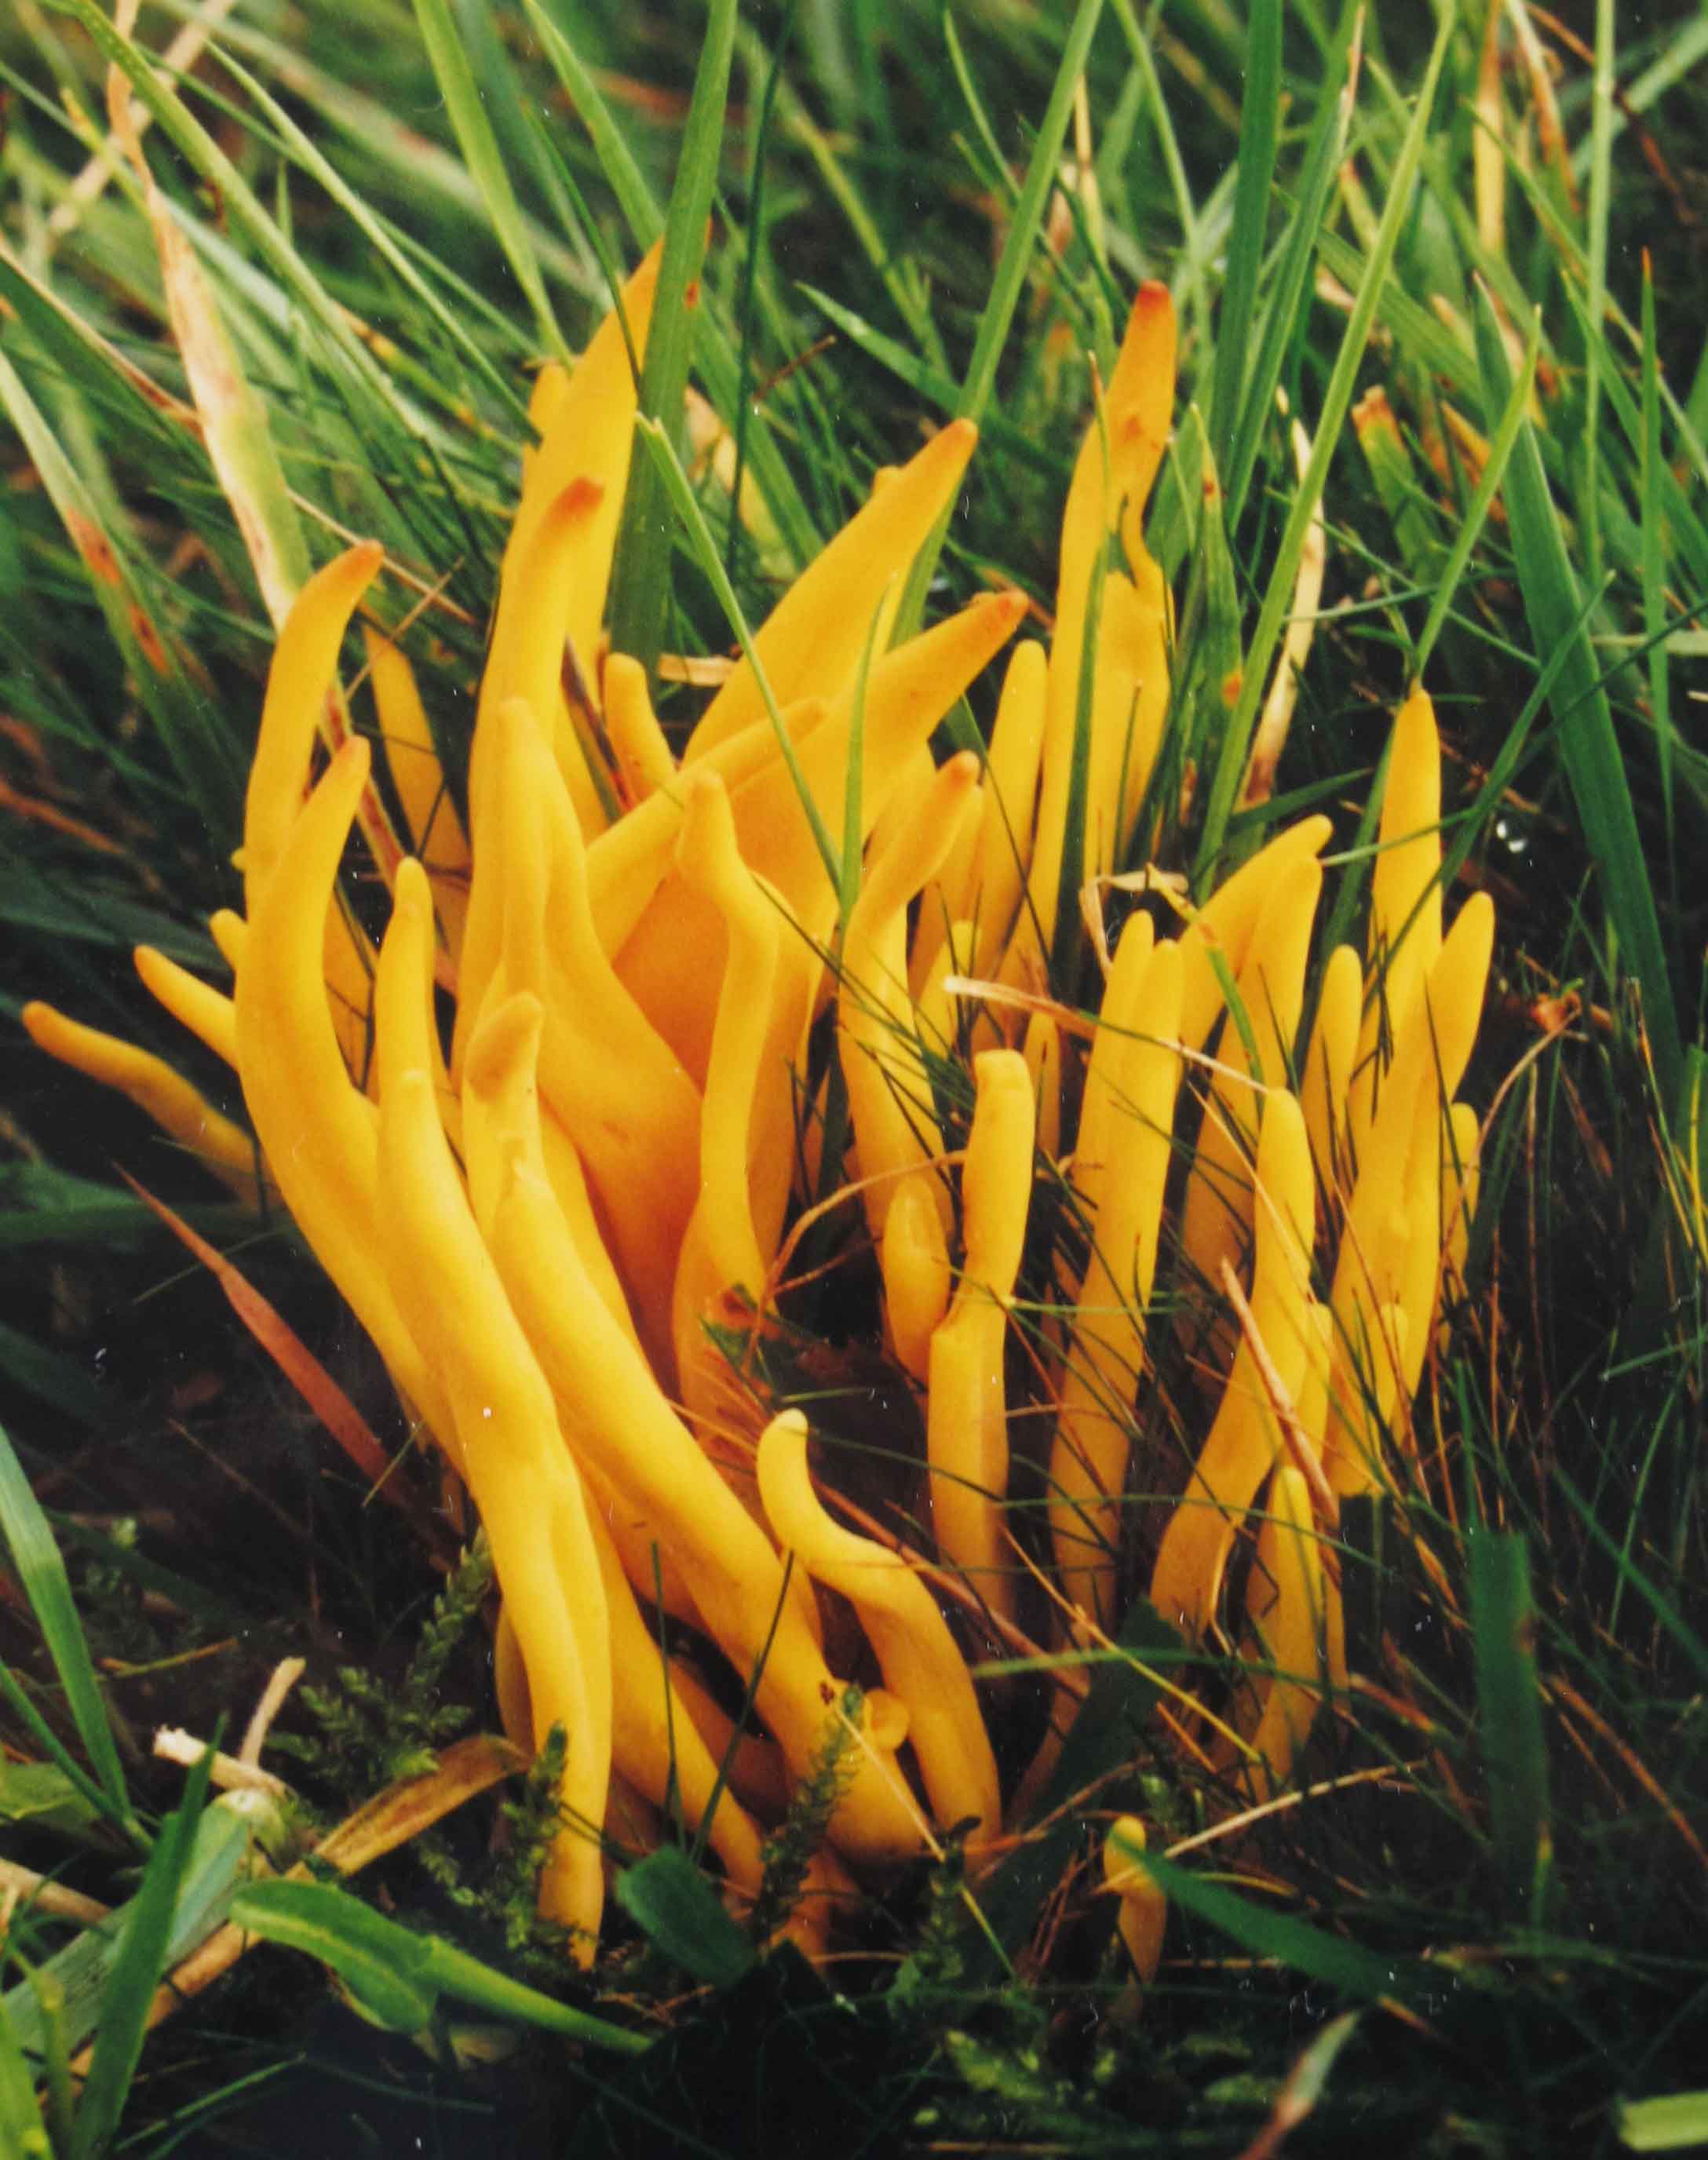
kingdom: Fungi
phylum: Basidiomycota
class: Agaricomycetes
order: Agaricales
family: Clavariaceae
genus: Clavulinopsis
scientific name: Clavulinopsis fusiformis
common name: tenformet køllesvamp
